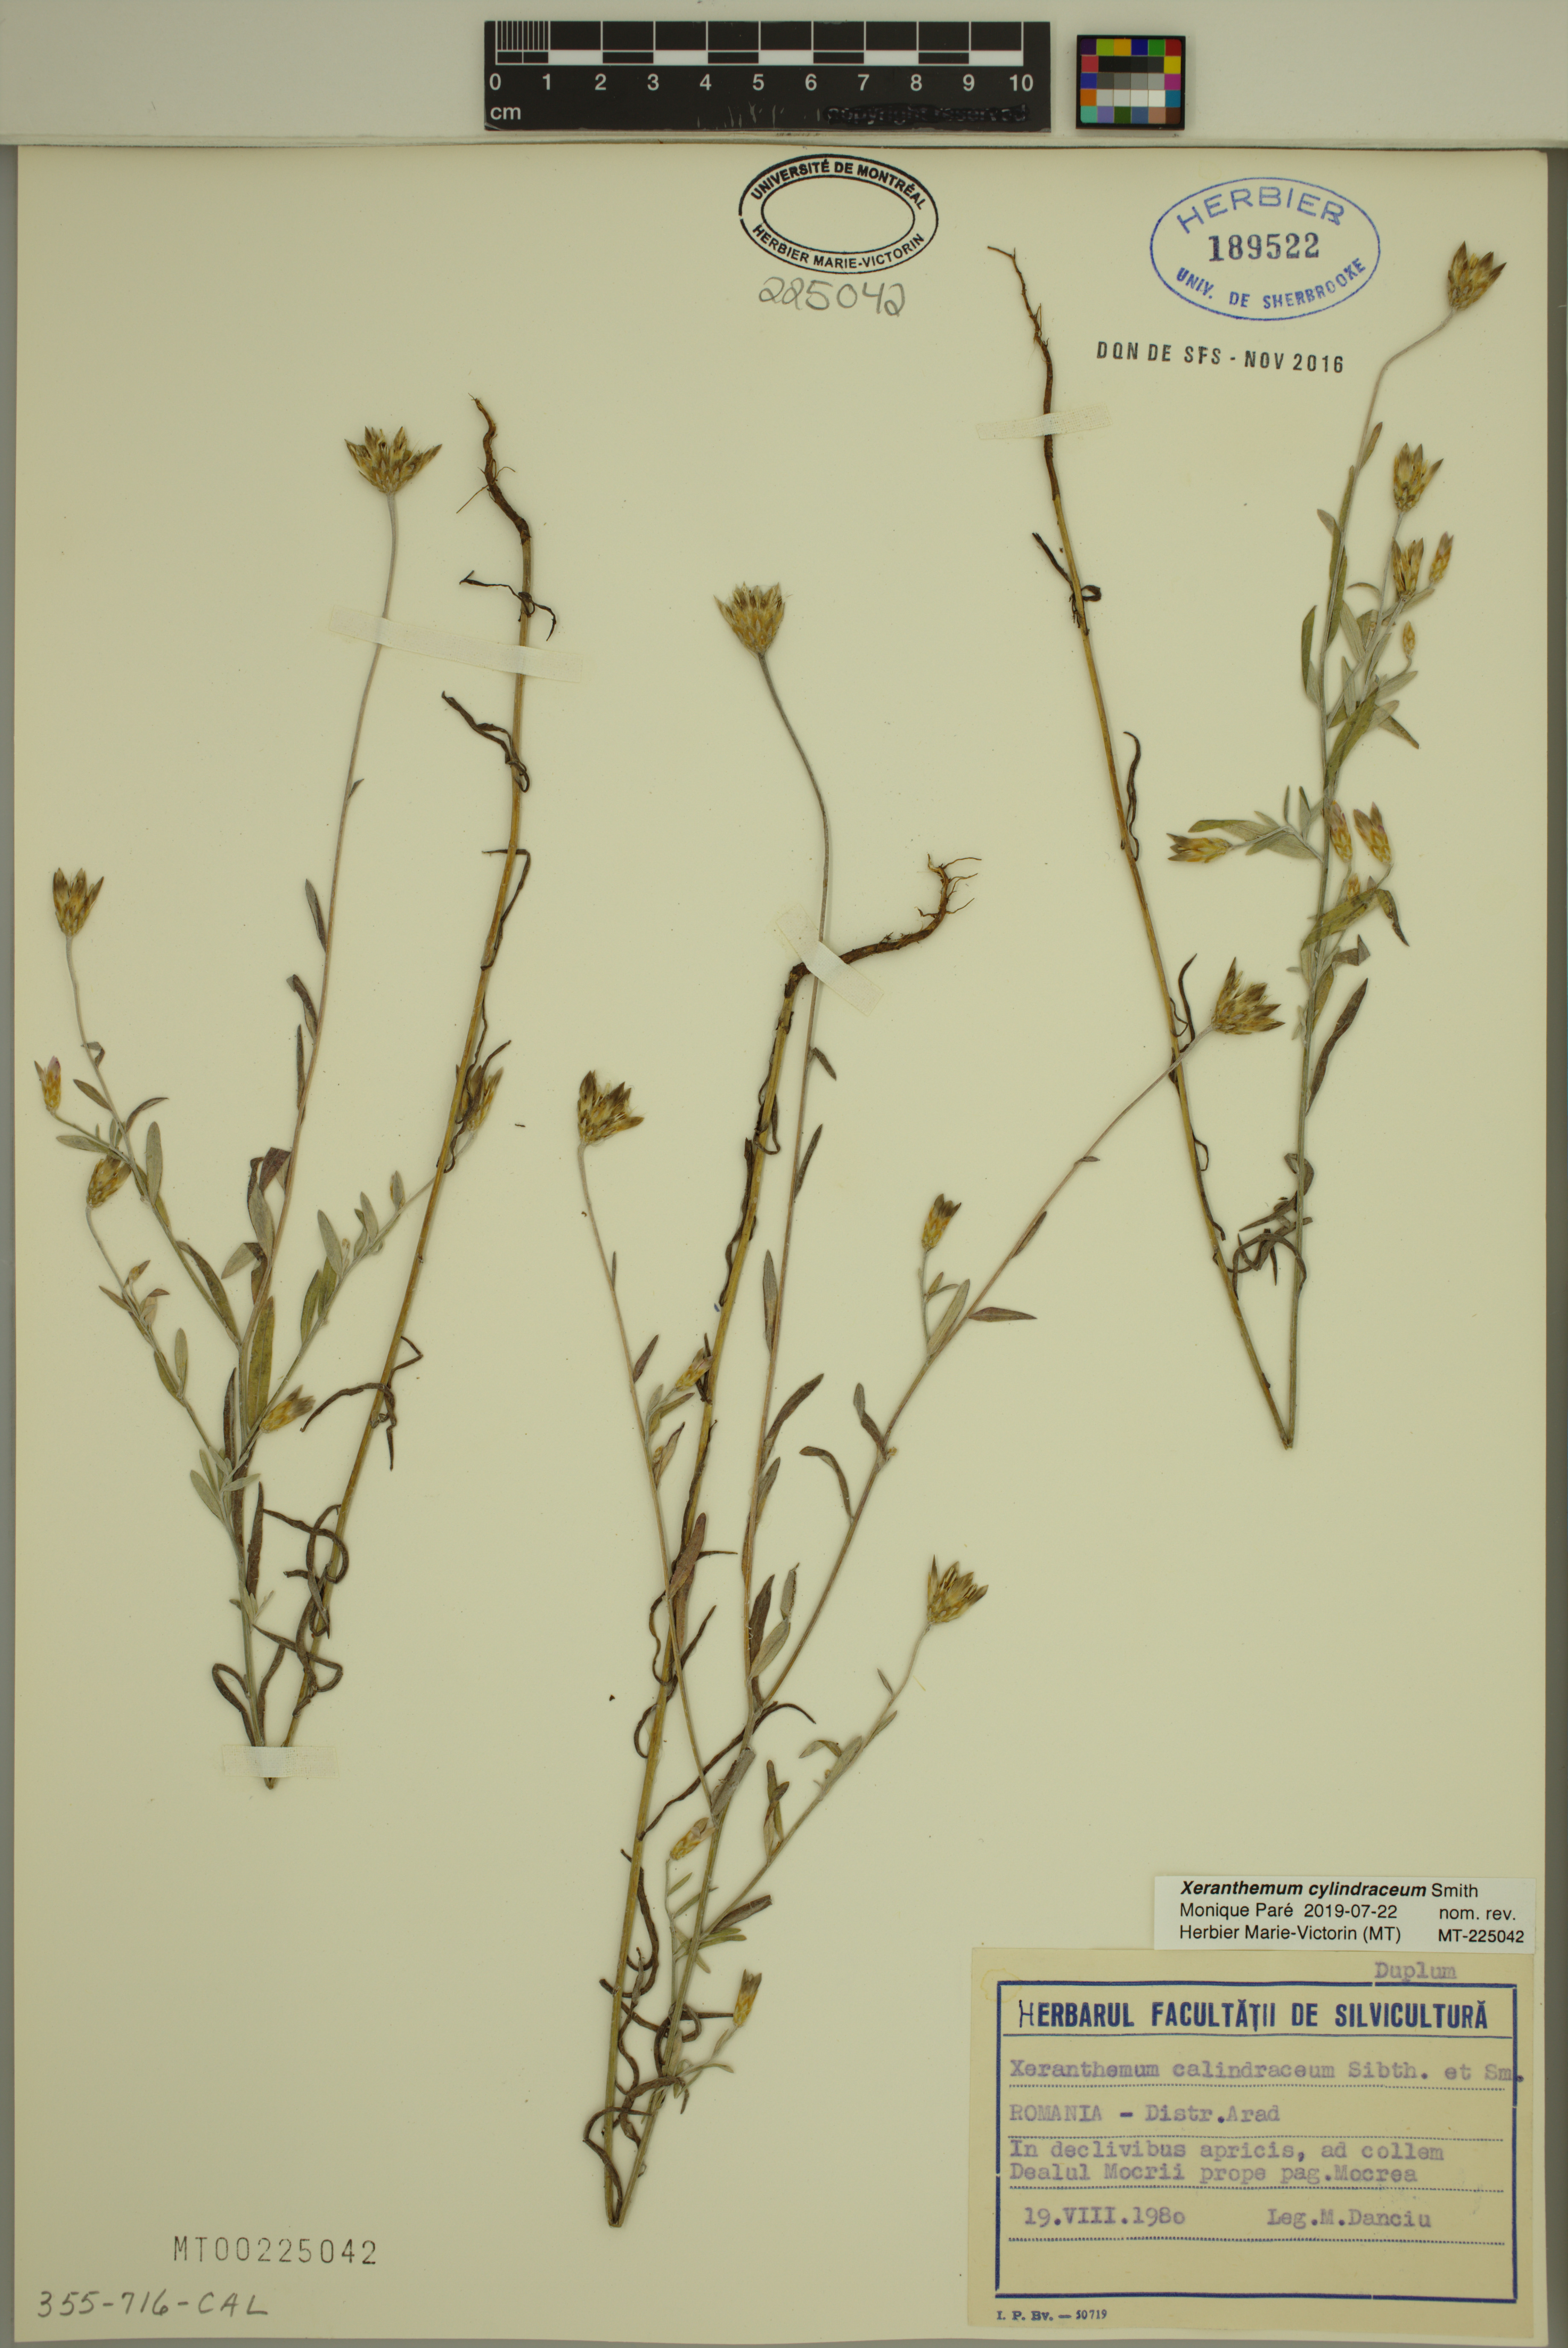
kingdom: Plantae
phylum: Tracheophyta
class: Magnoliopsida
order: Asterales
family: Asteraceae
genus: Xeranthemum
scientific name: Xeranthemum cylindraceum
